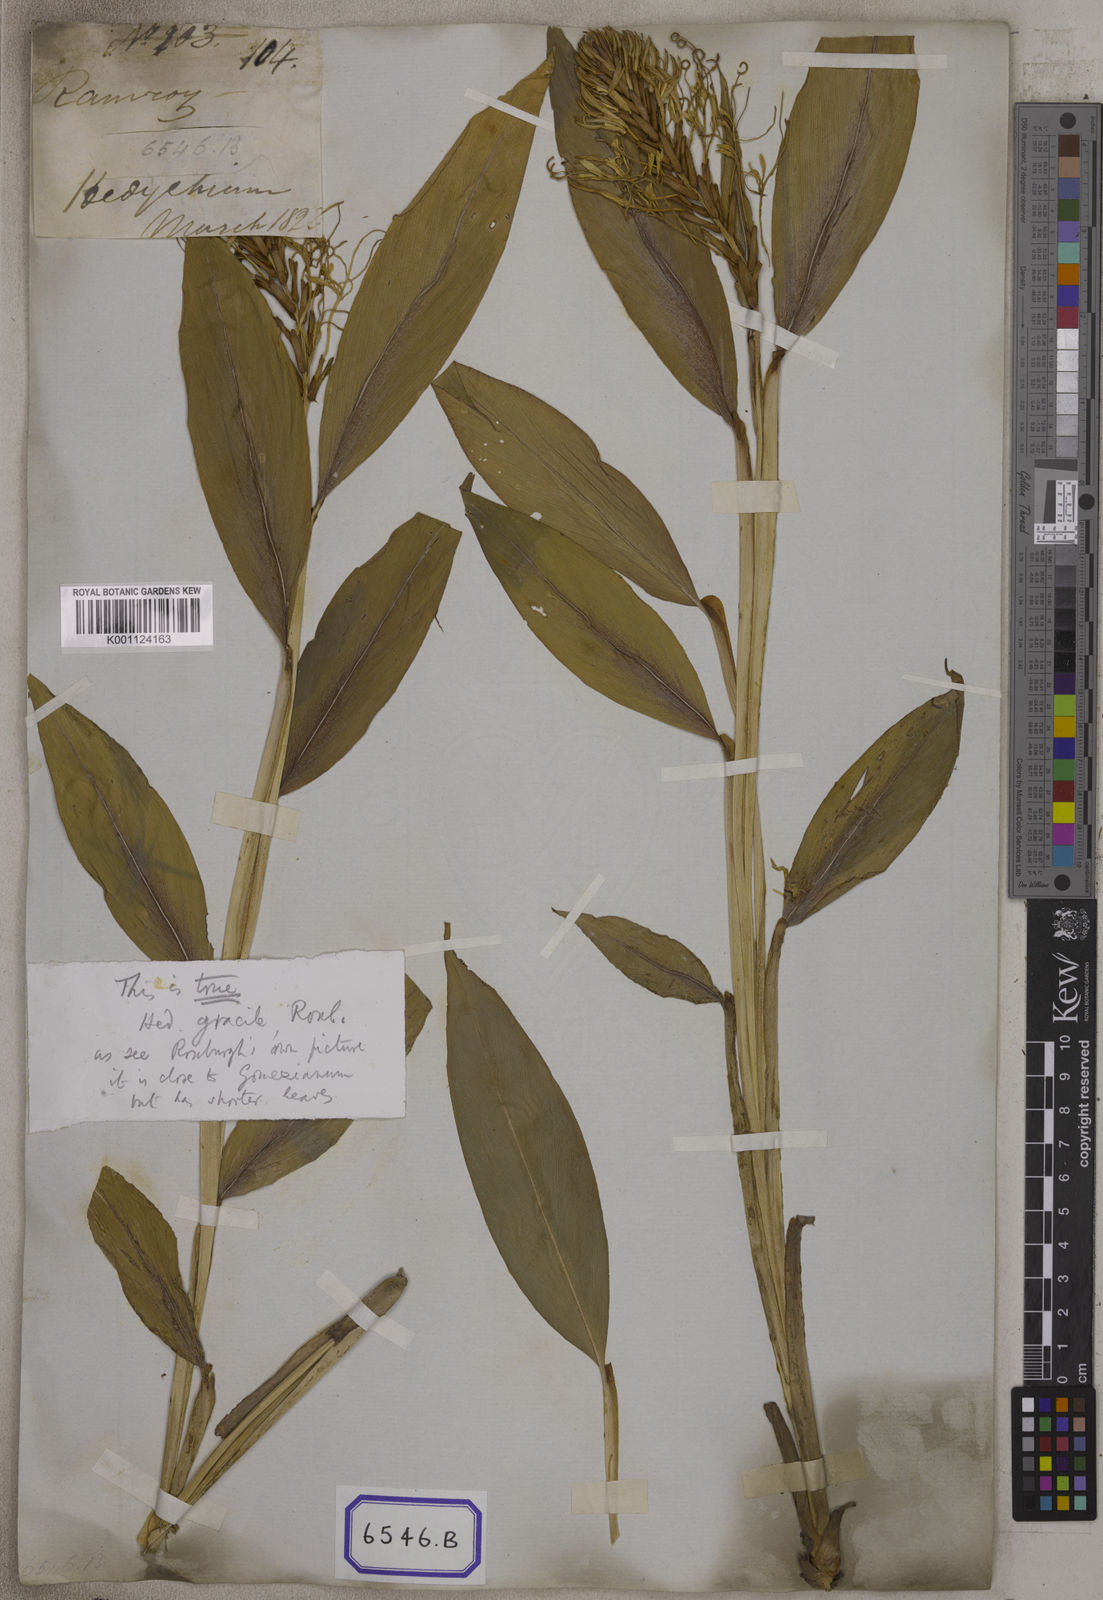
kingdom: Plantae
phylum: Tracheophyta
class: Liliopsida
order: Zingiberales
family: Zingiberaceae
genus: Hedychium
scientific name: Hedychium gracile
